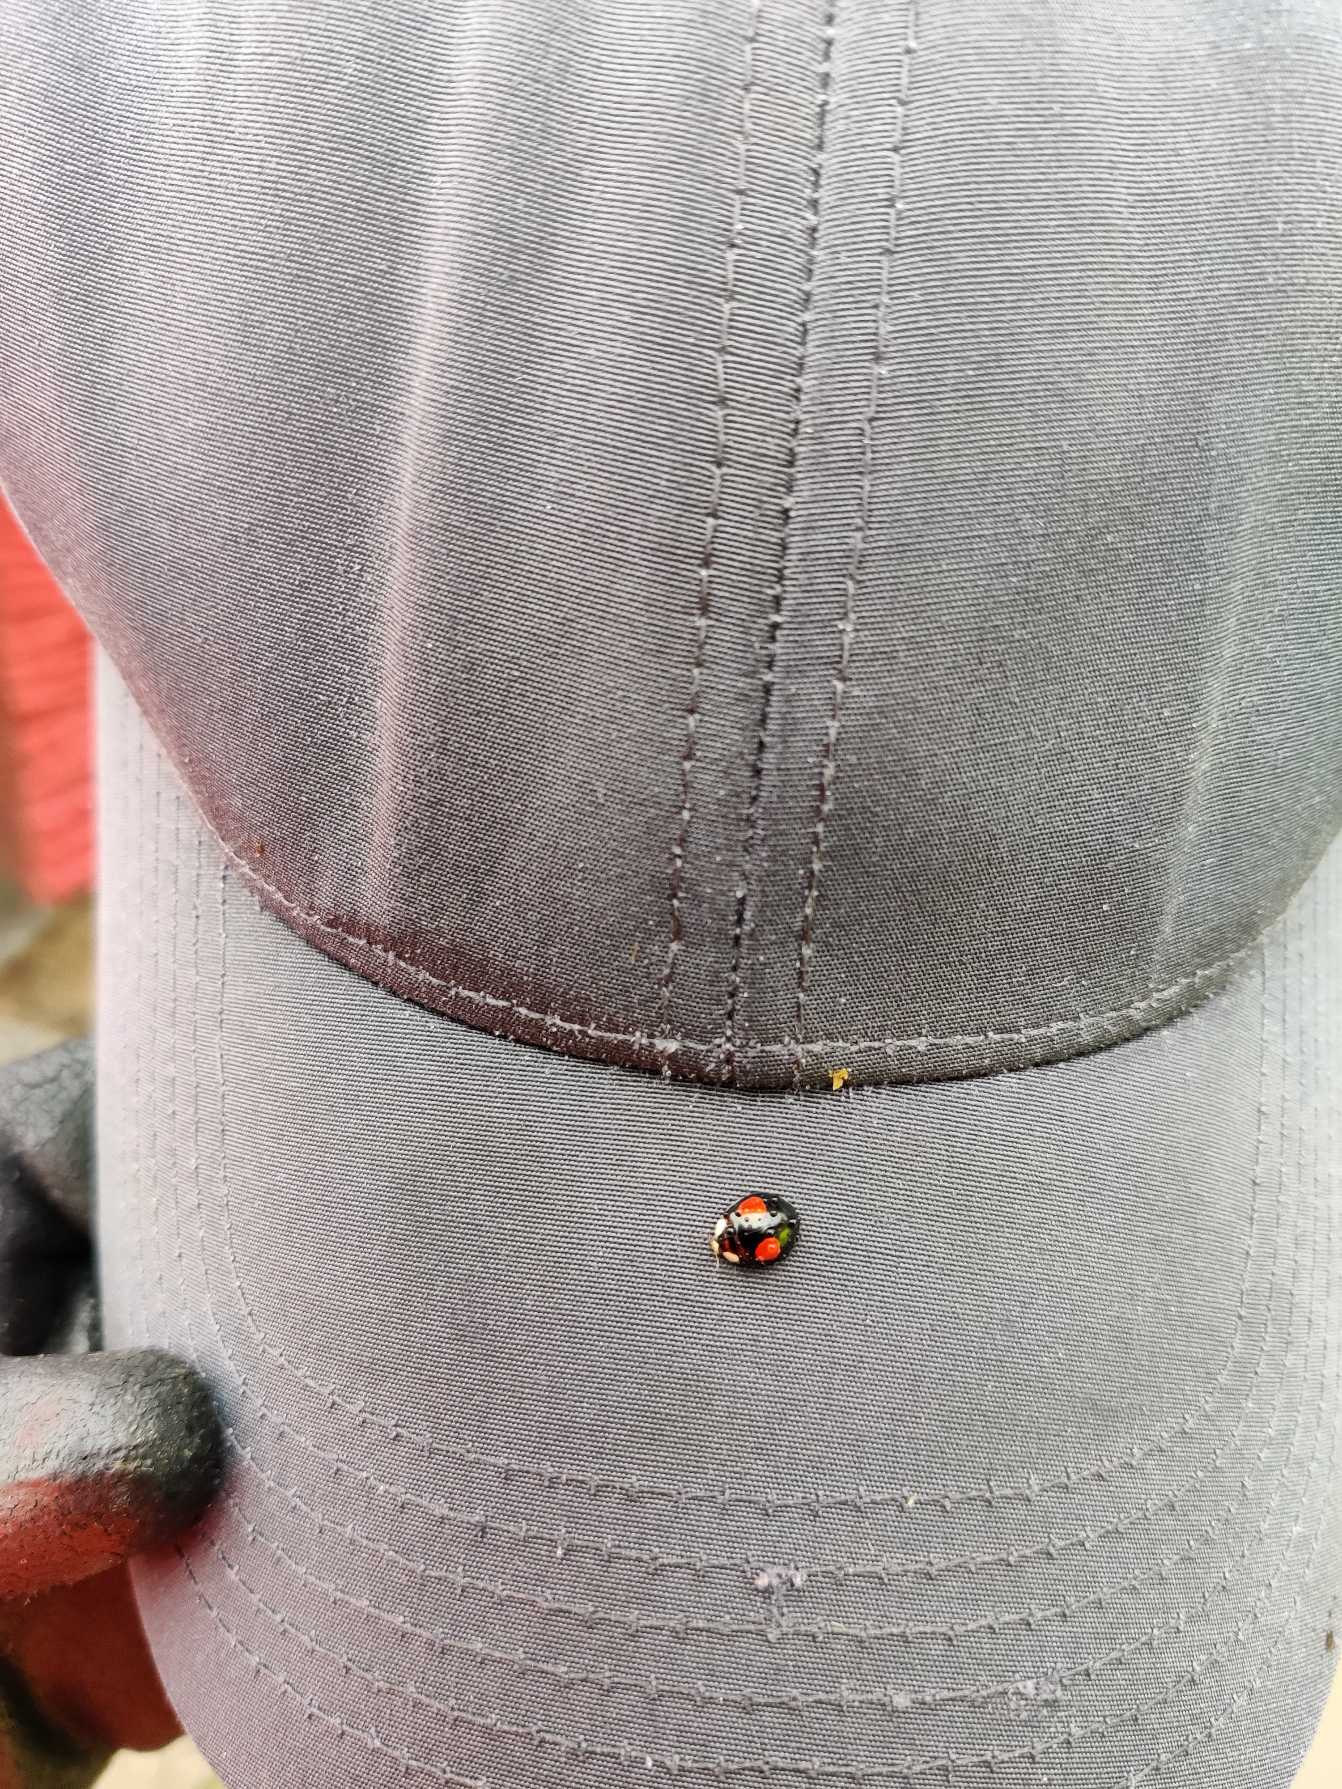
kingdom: Animalia
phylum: Arthropoda
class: Insecta
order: Coleoptera
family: Coccinellidae
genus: Harmonia
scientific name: Harmonia axyridis
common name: Harlekinmariehøne
